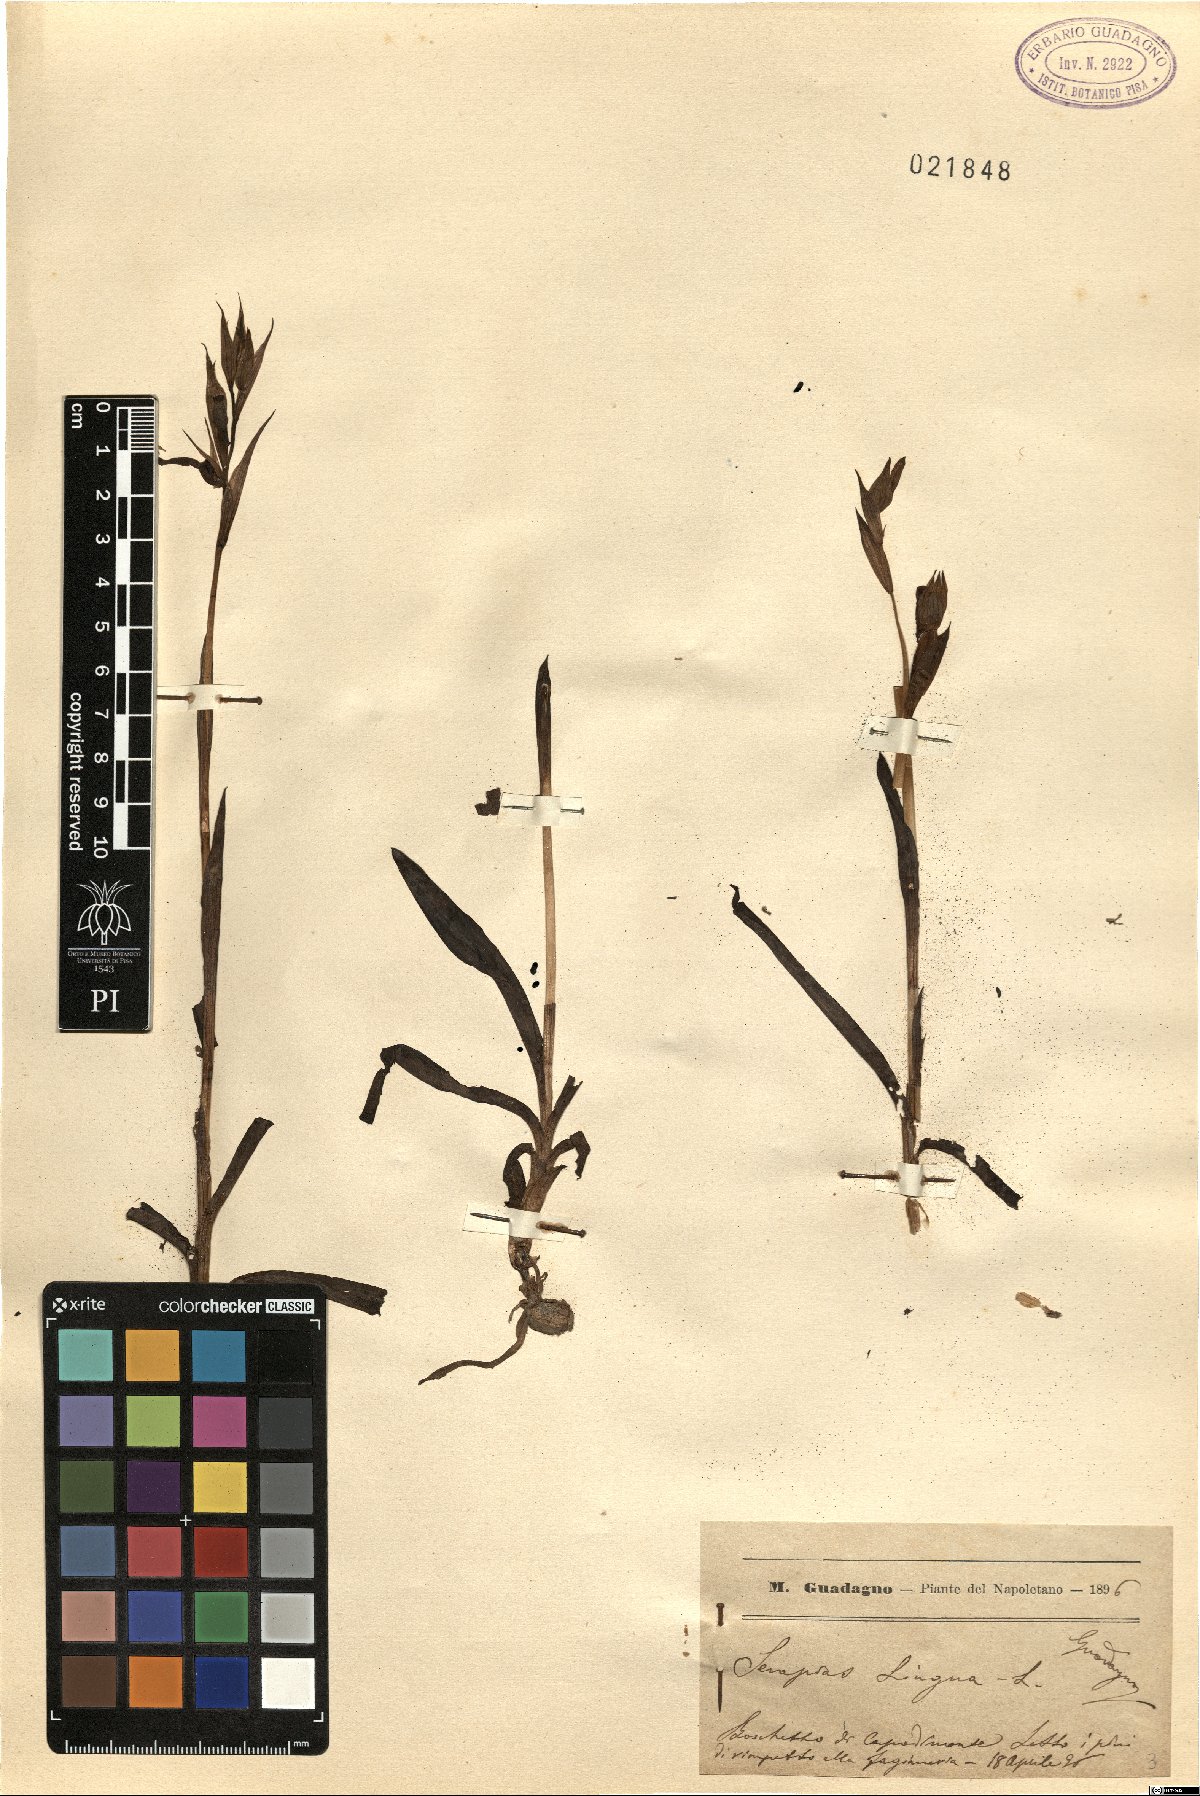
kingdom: Plantae
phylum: Tracheophyta
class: Liliopsida
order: Asparagales
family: Orchidaceae
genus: Serapias
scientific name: Serapias lingua
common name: Tongue-orchid
